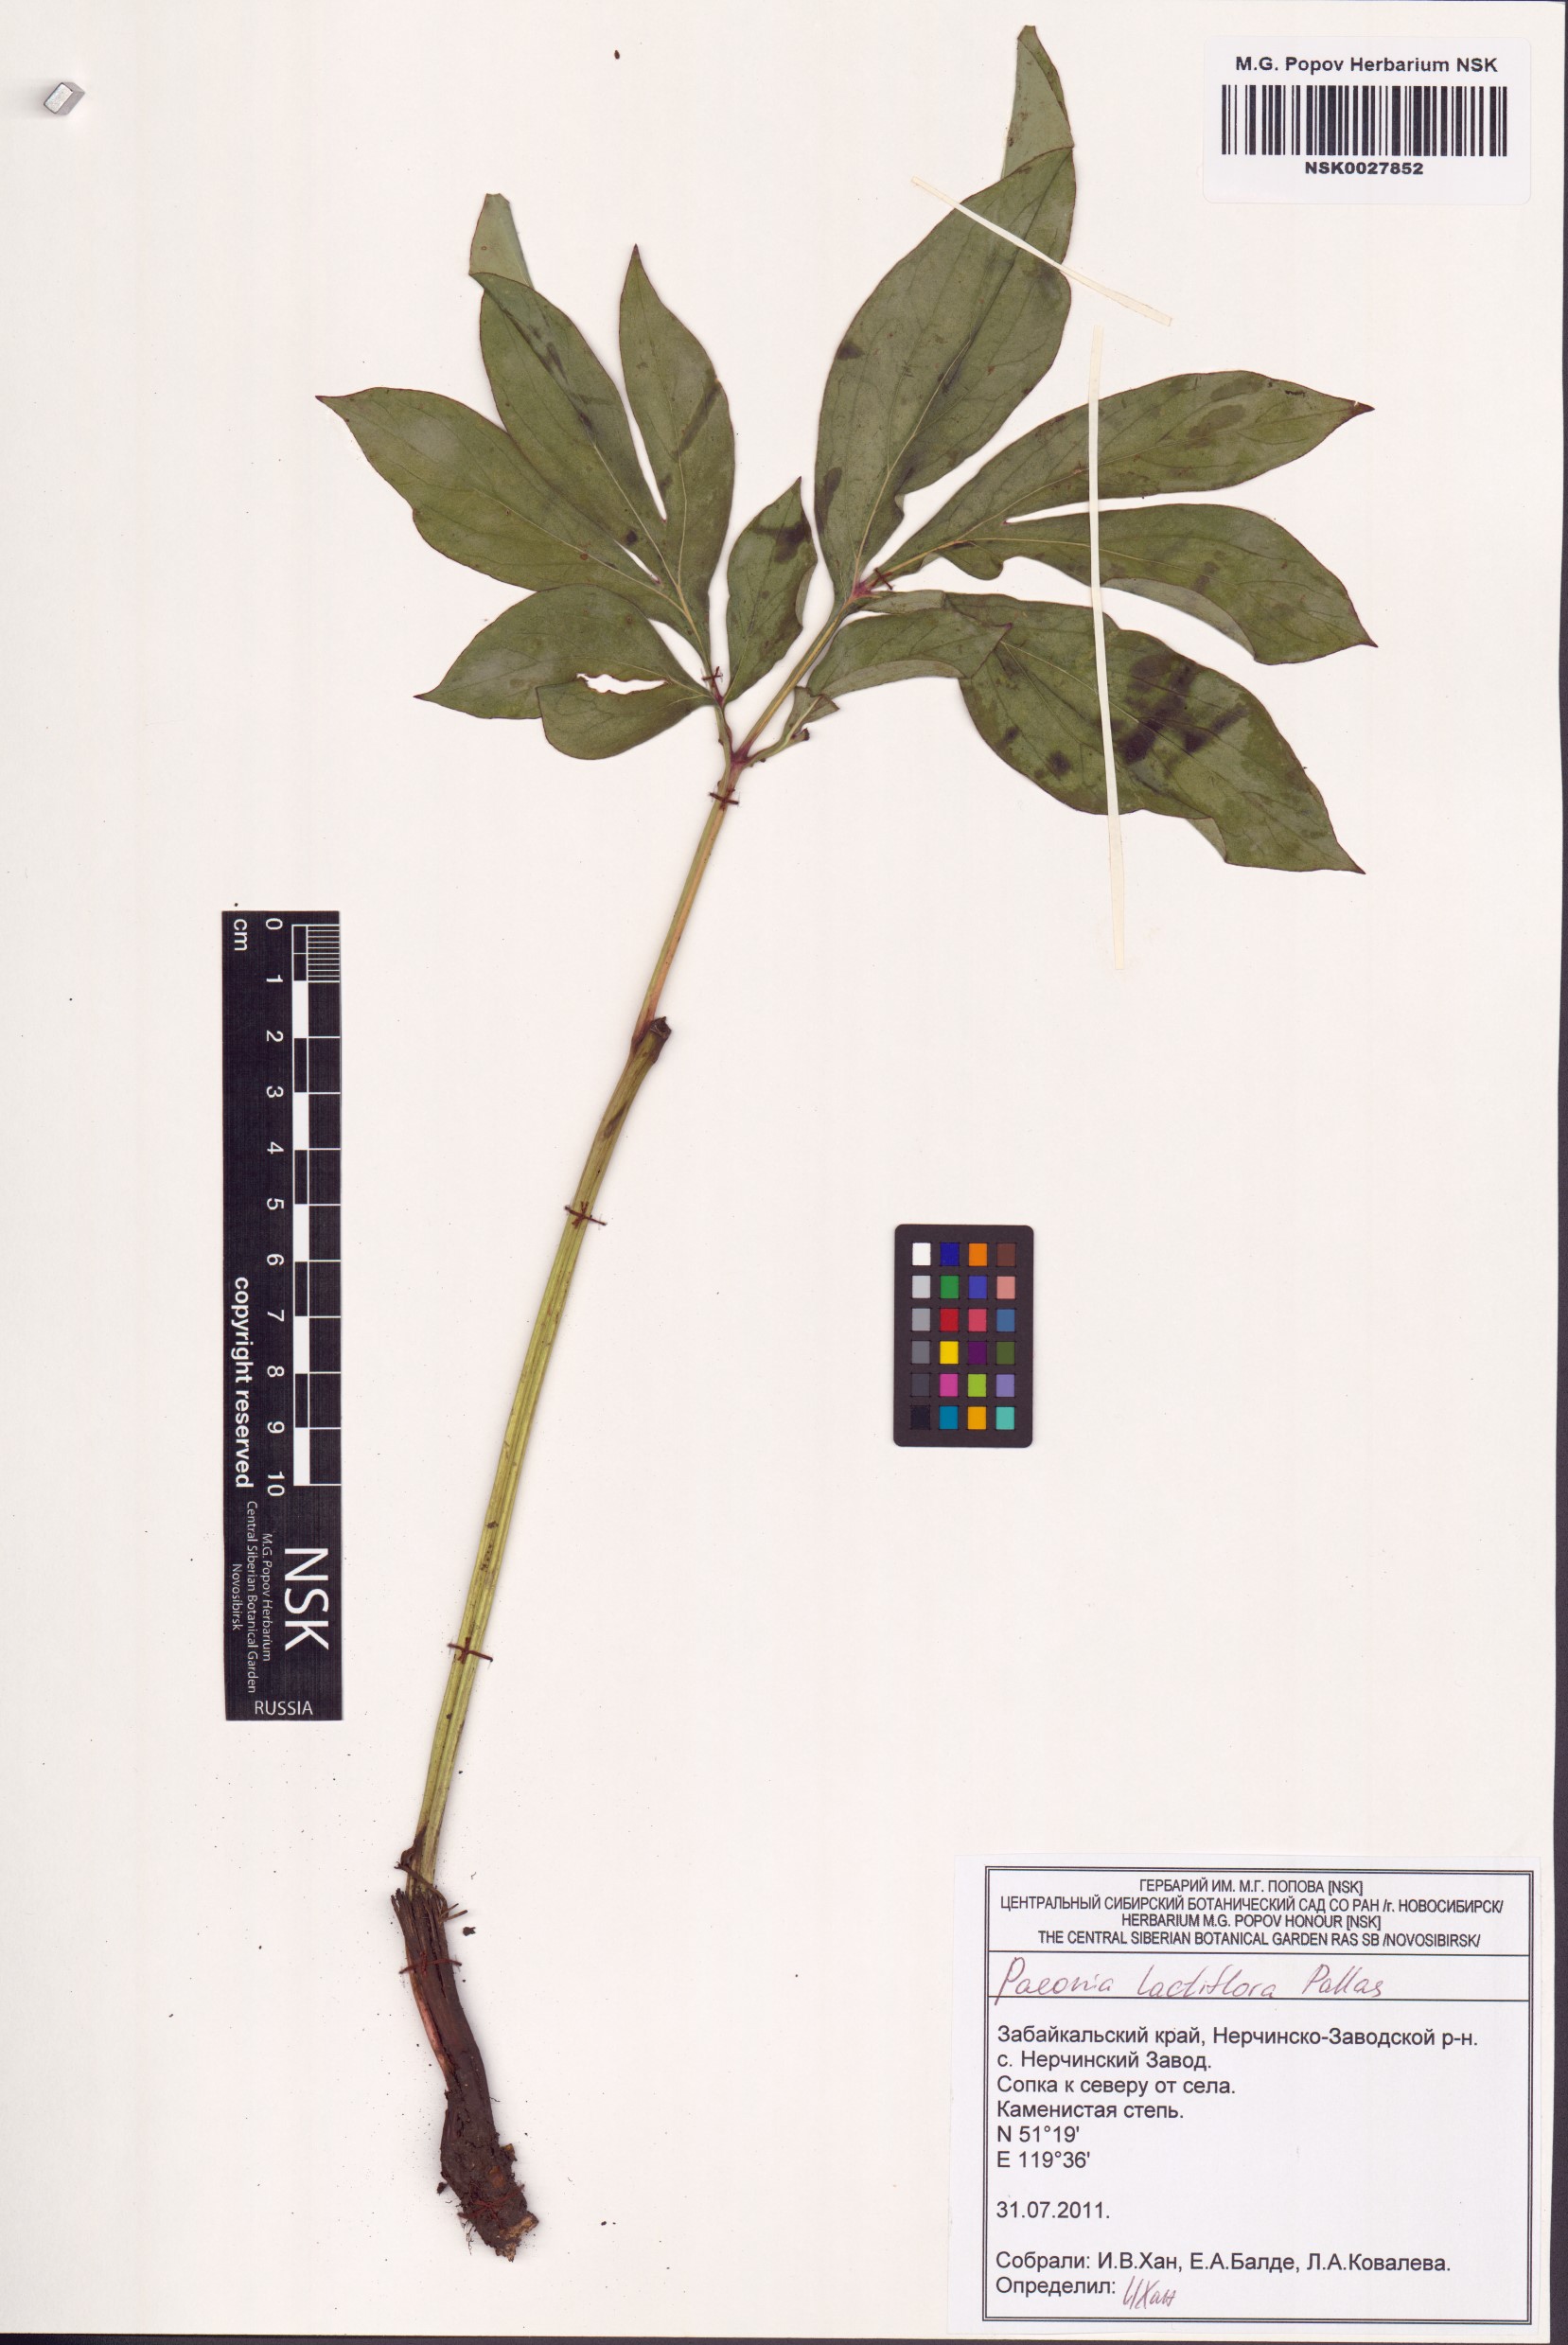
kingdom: Plantae
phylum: Tracheophyta
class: Magnoliopsida
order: Saxifragales
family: Paeoniaceae
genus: Paeonia
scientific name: Paeonia lactiflora
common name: Chinese peony
